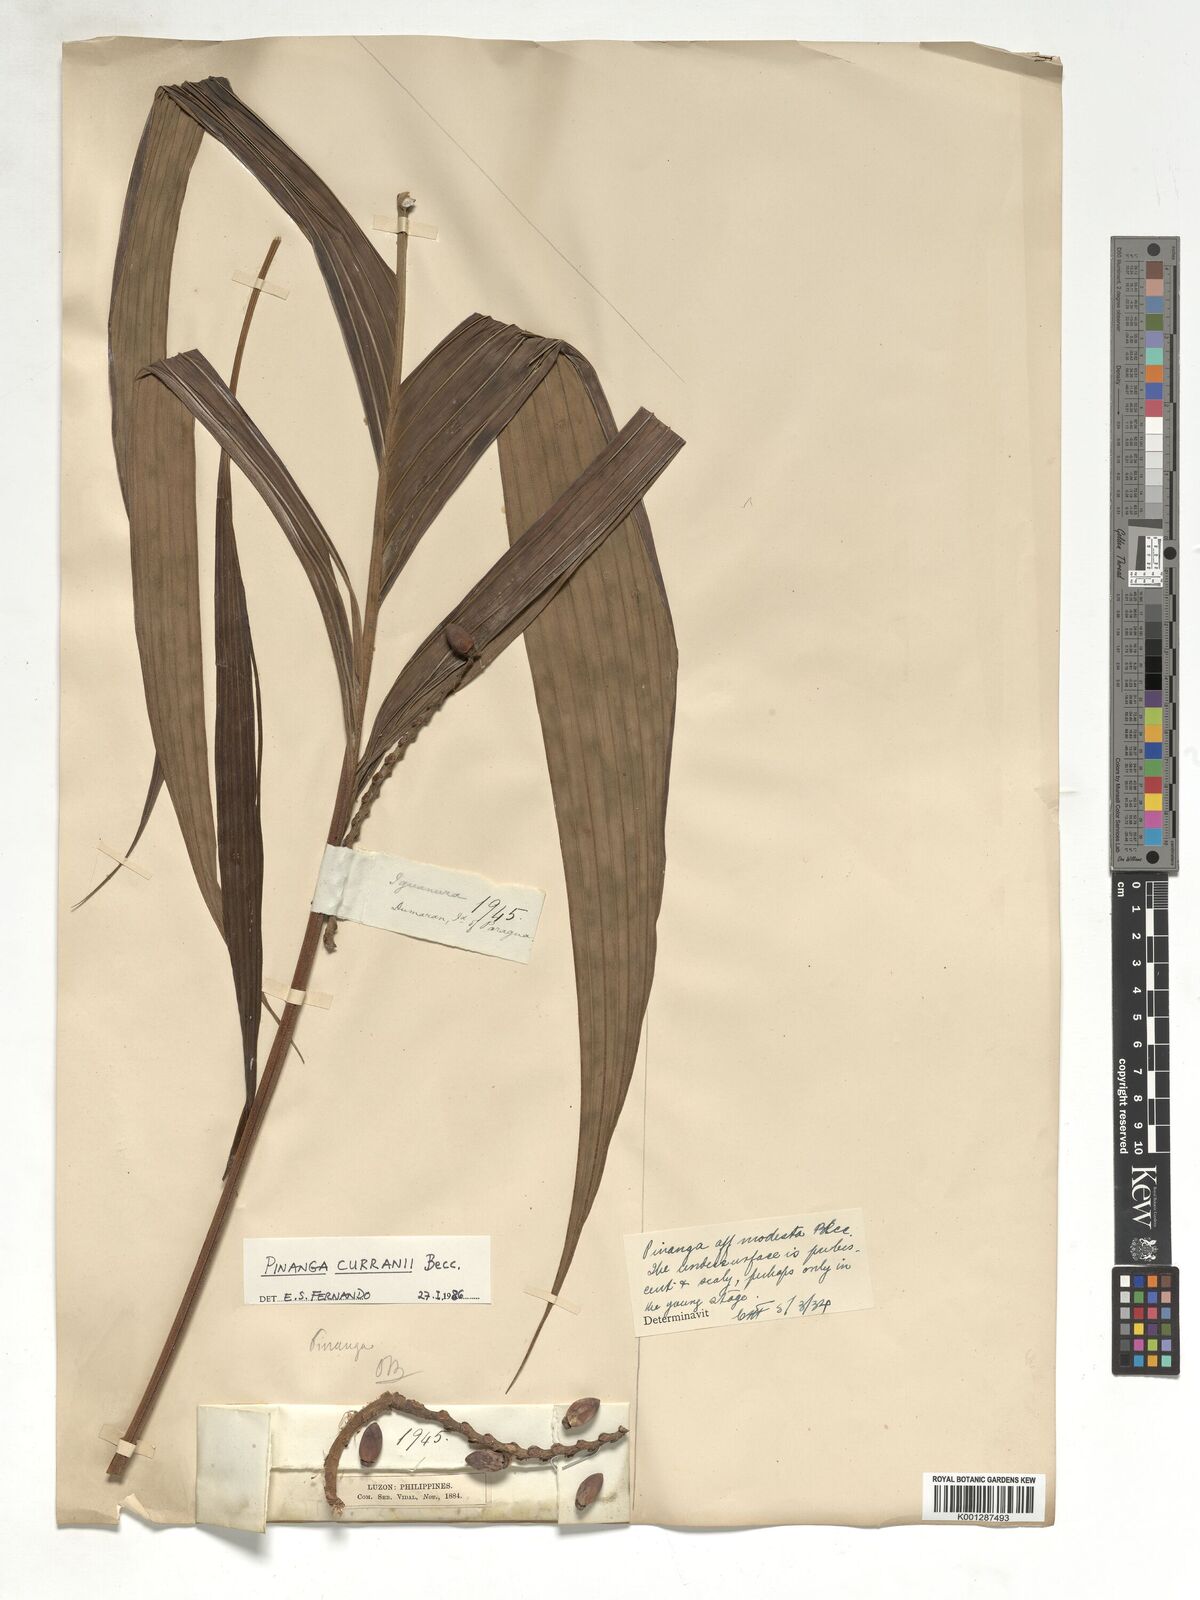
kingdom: Plantae
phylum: Tracheophyta
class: Liliopsida
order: Arecales
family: Arecaceae
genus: Pinanga
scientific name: Pinanga curranii
